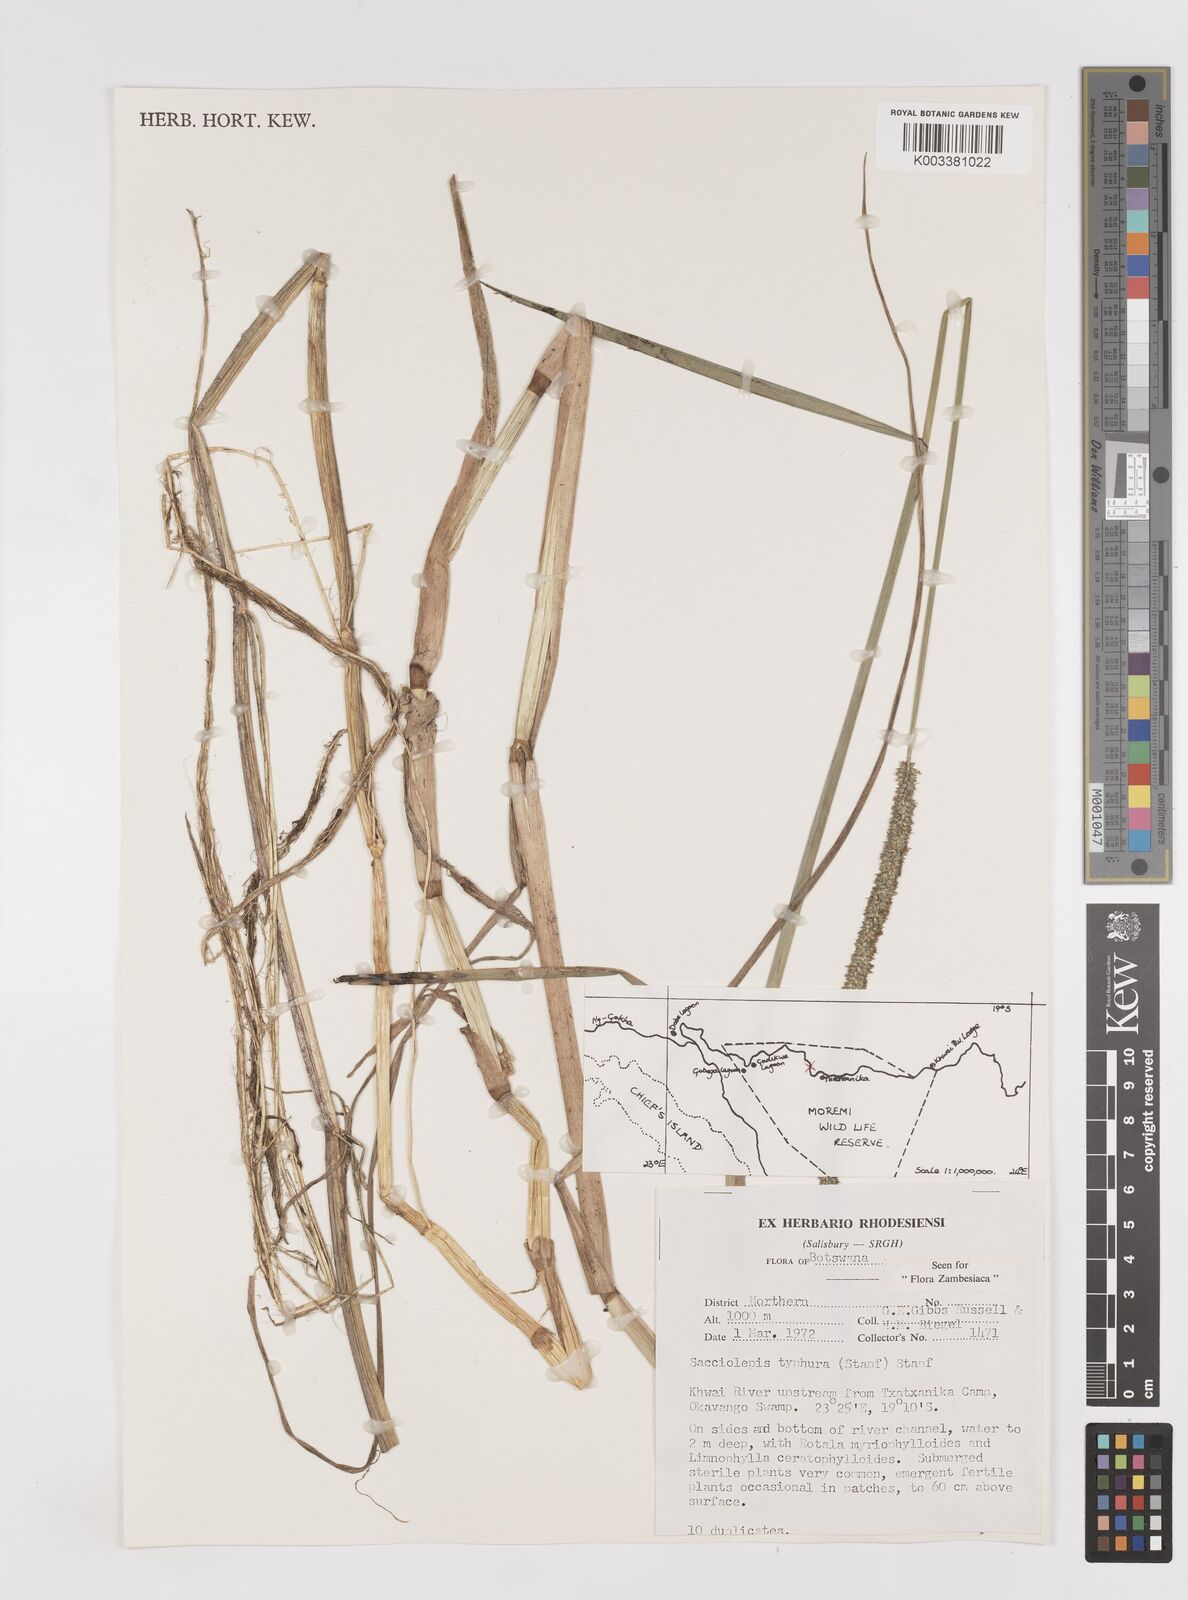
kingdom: Plantae
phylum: Tracheophyta
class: Liliopsida
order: Poales
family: Poaceae
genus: Sacciolepis
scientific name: Sacciolepis typhura
